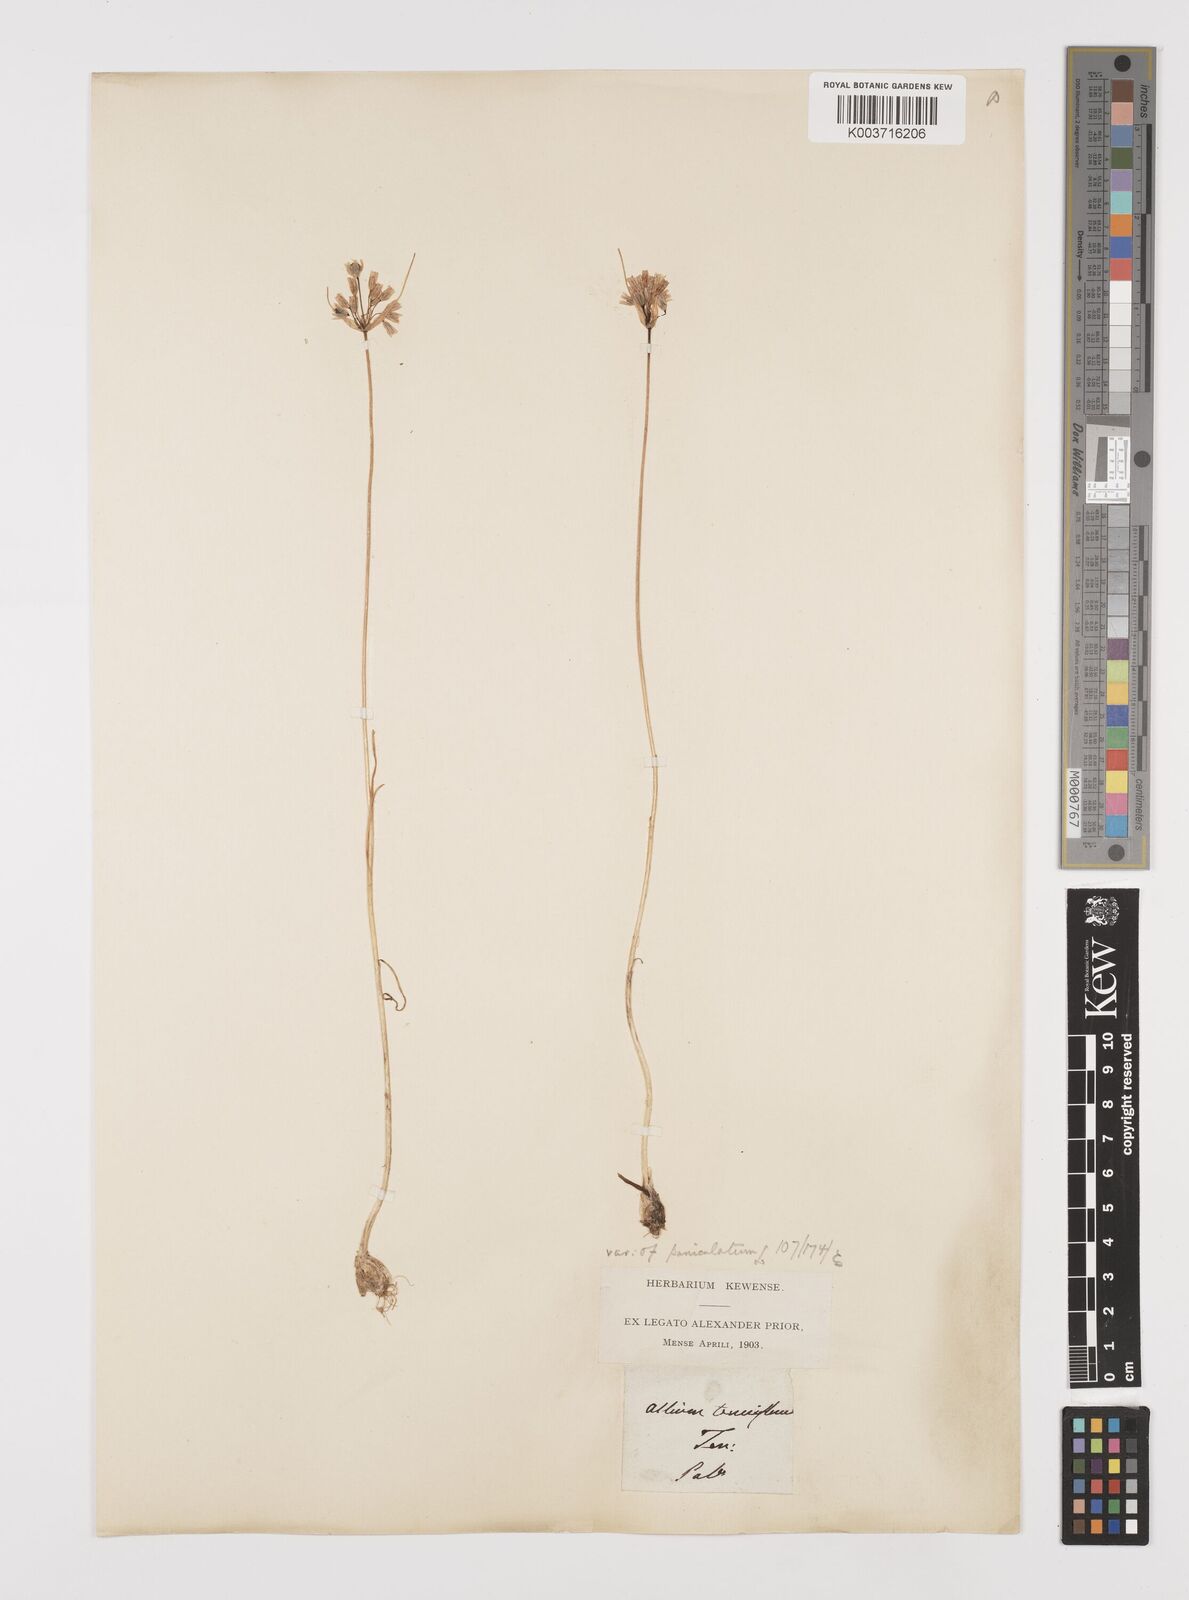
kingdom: Plantae
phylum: Tracheophyta
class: Liliopsida
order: Asparagales
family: Amaryllidaceae
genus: Allium
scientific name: Allium tenuiflorum
